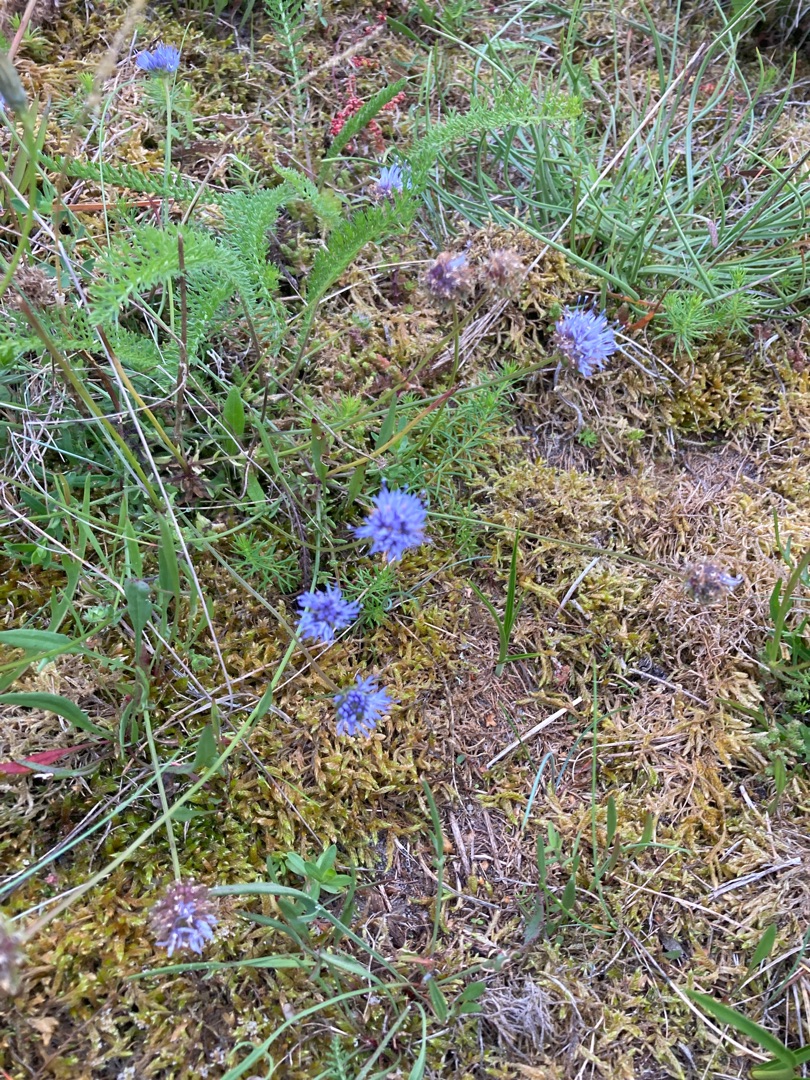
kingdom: Plantae
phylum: Tracheophyta
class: Magnoliopsida
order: Asterales
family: Campanulaceae
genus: Jasione
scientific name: Jasione montana
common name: Blåmunke
